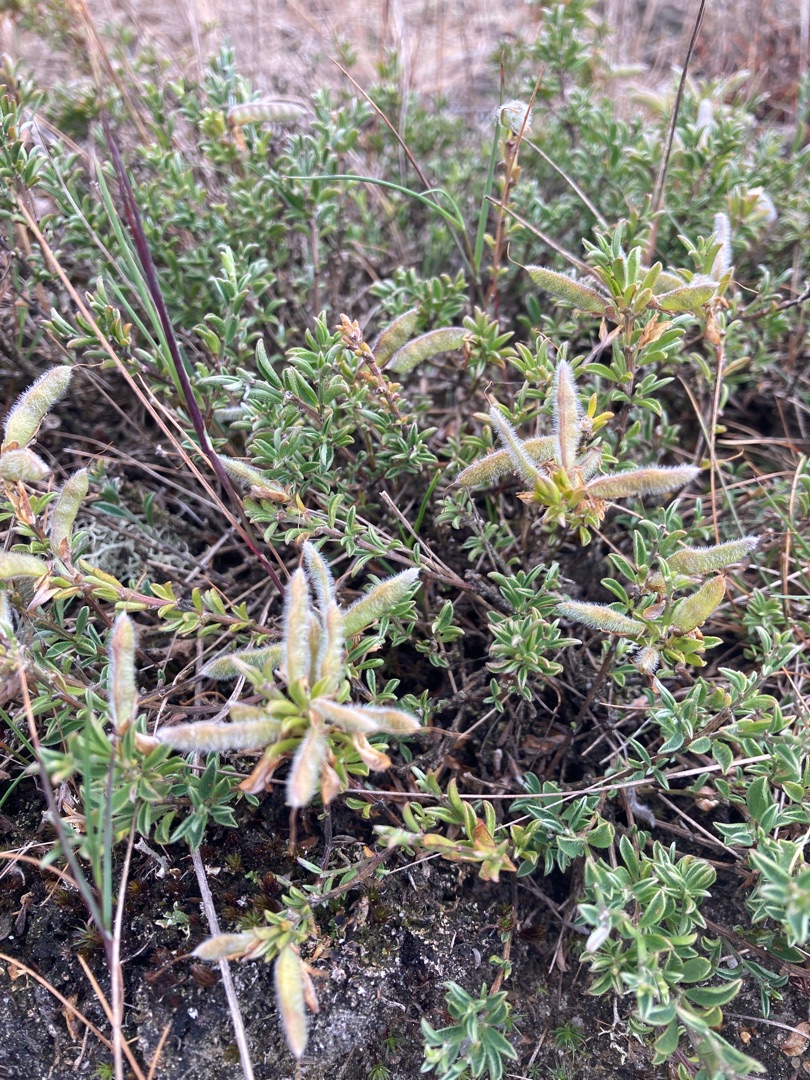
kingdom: Plantae
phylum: Tracheophyta
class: Magnoliopsida
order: Fabales
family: Fabaceae
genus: Genista
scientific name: Genista pilosa
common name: Håret visse
